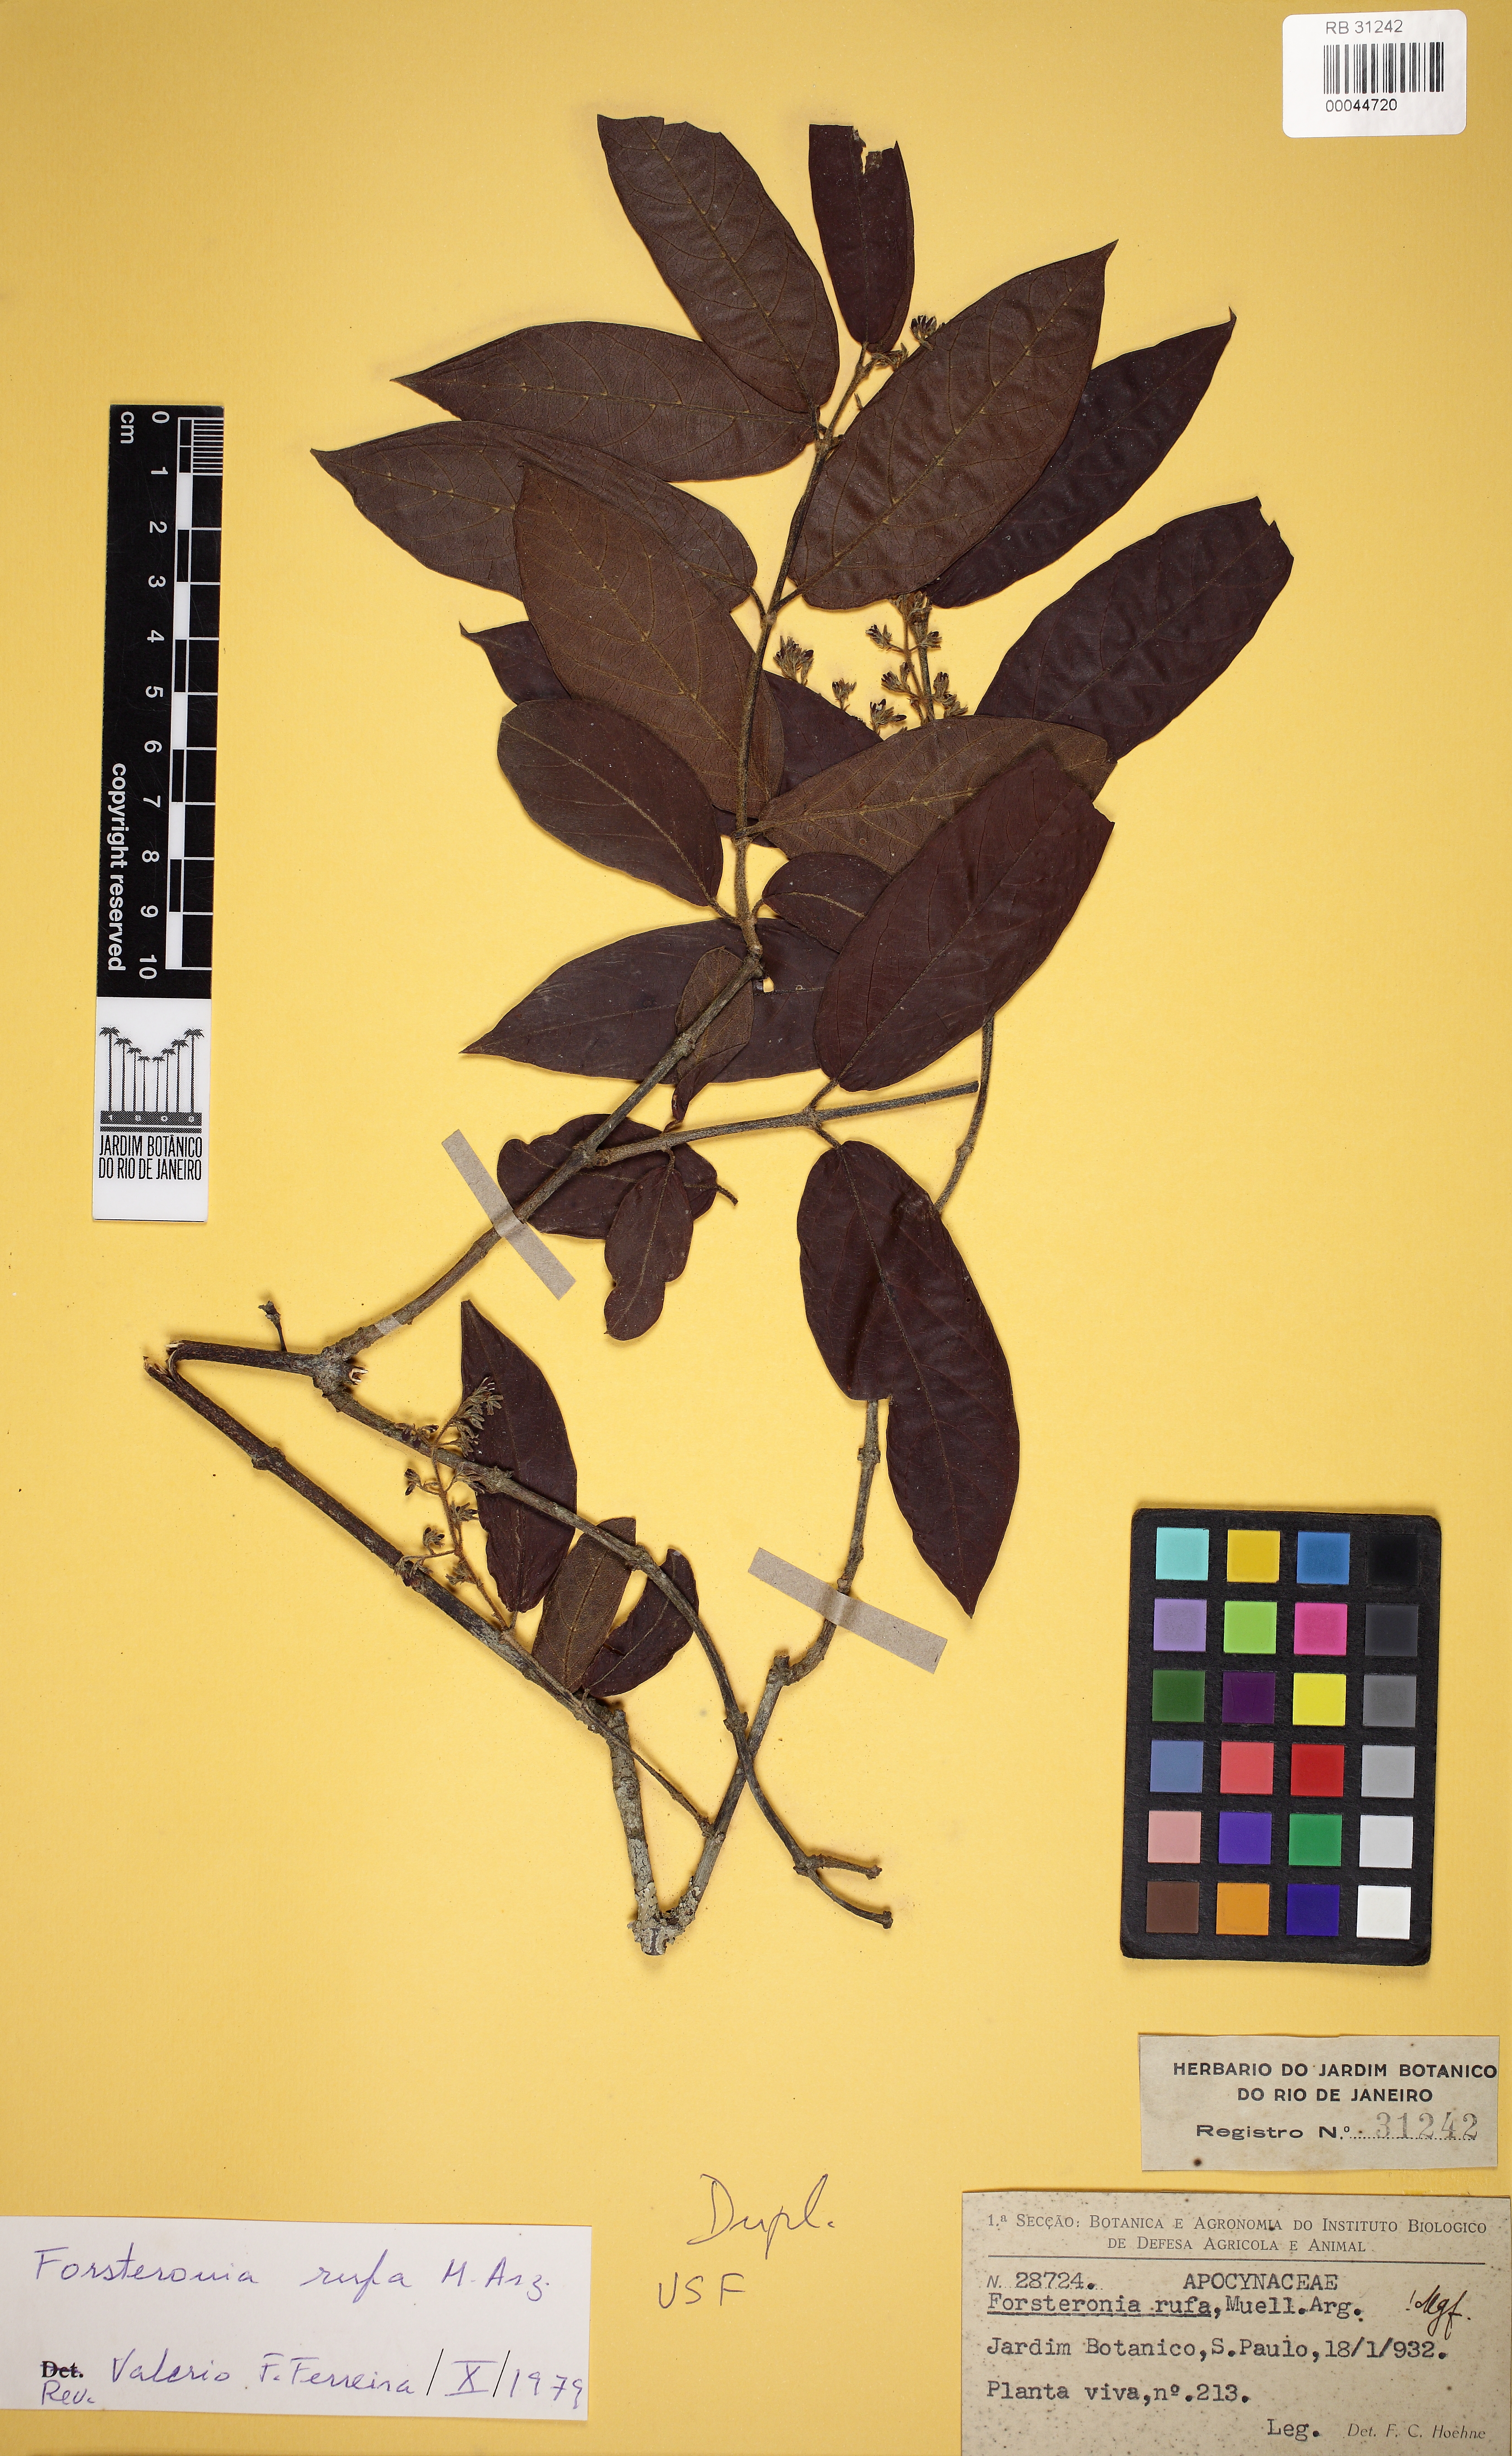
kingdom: Plantae
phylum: Tracheophyta
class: Magnoliopsida
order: Gentianales
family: Apocynaceae
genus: Forsteronia
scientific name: Forsteronia rufa
